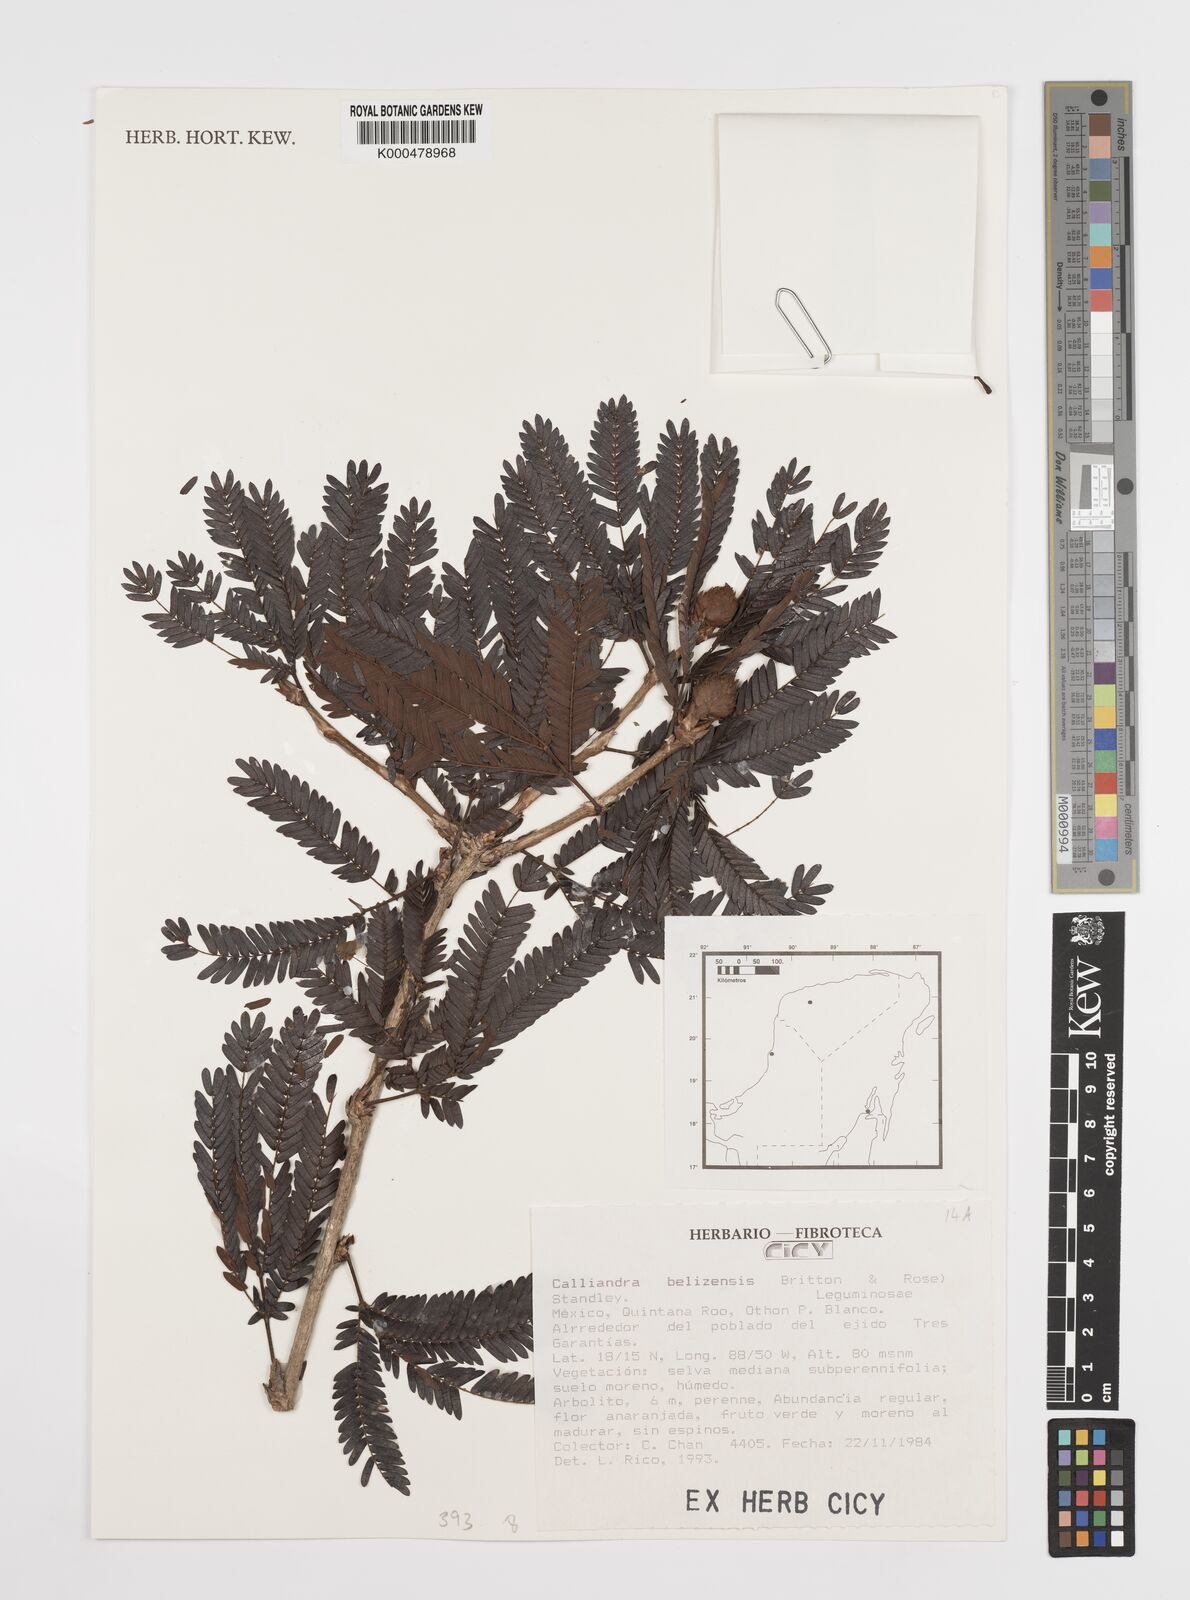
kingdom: Plantae
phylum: Tracheophyta
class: Magnoliopsida
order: Fabales
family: Fabaceae
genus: Calliandra
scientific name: Calliandra belizensis
